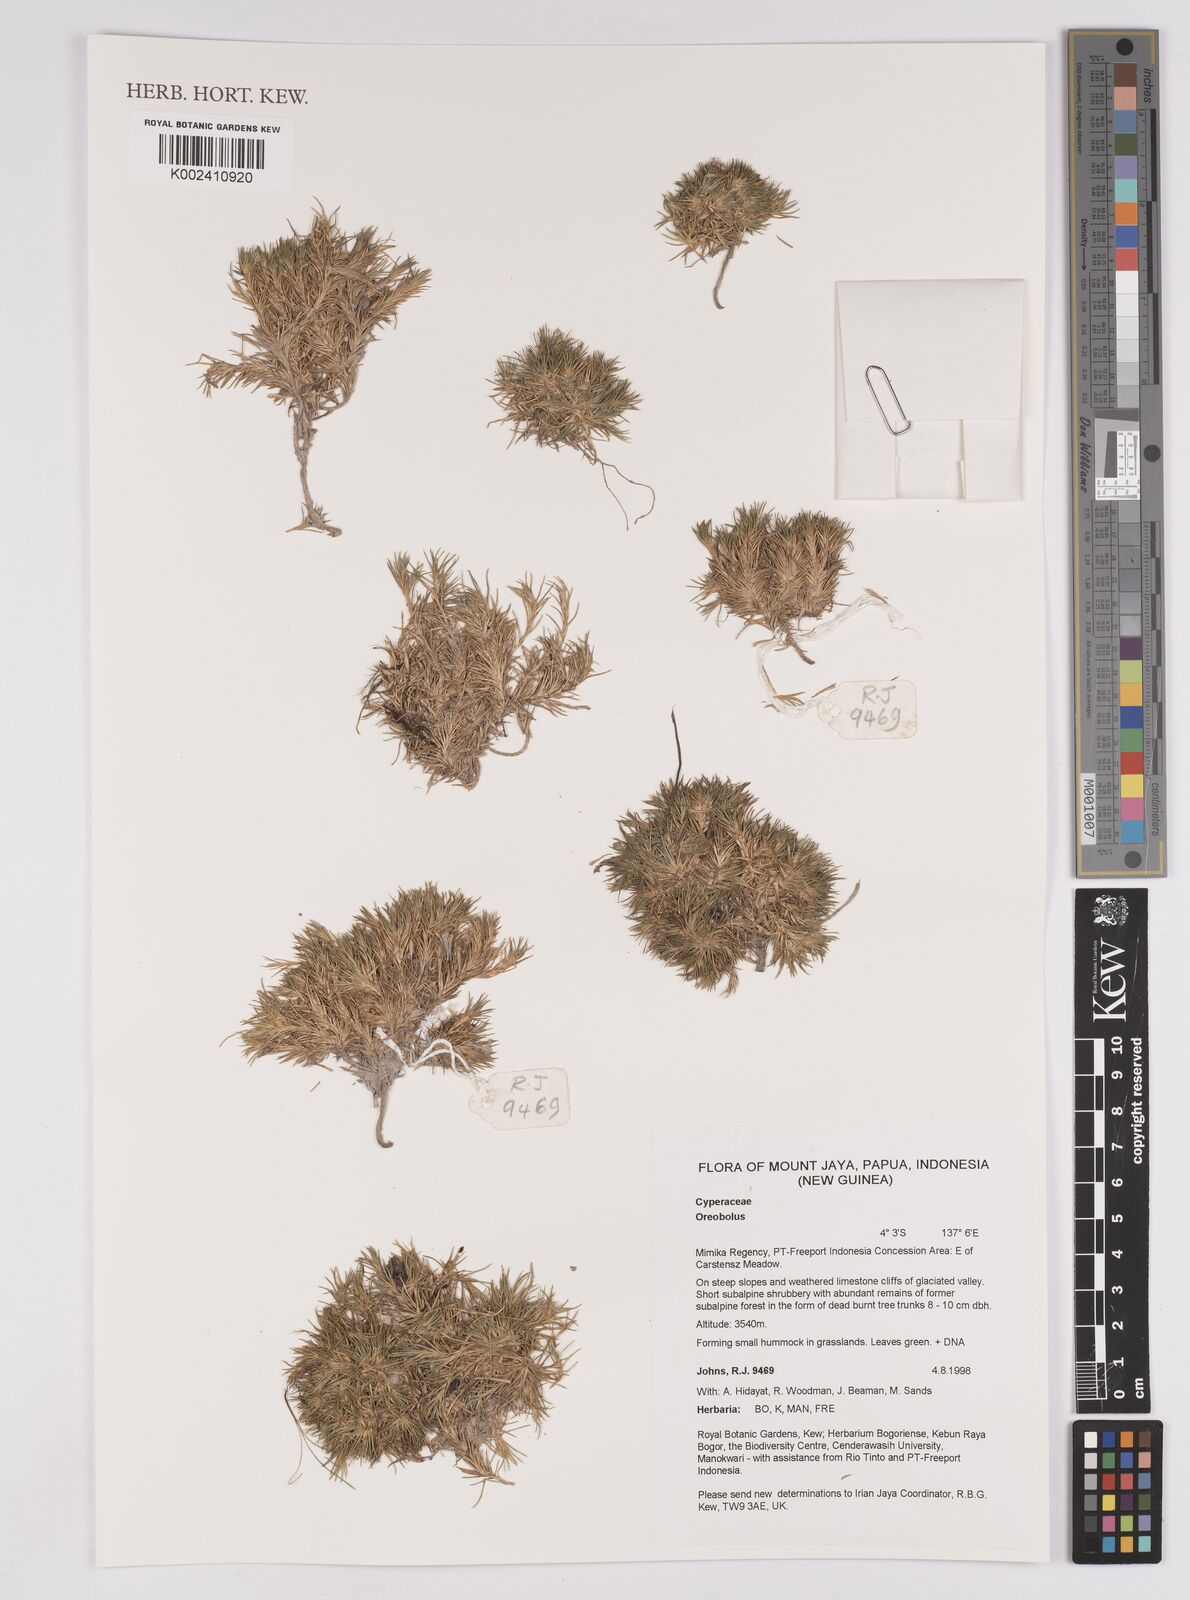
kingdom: Plantae
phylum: Tracheophyta
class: Liliopsida
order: Poales
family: Cyperaceae
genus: Oreobolus
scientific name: Oreobolus
